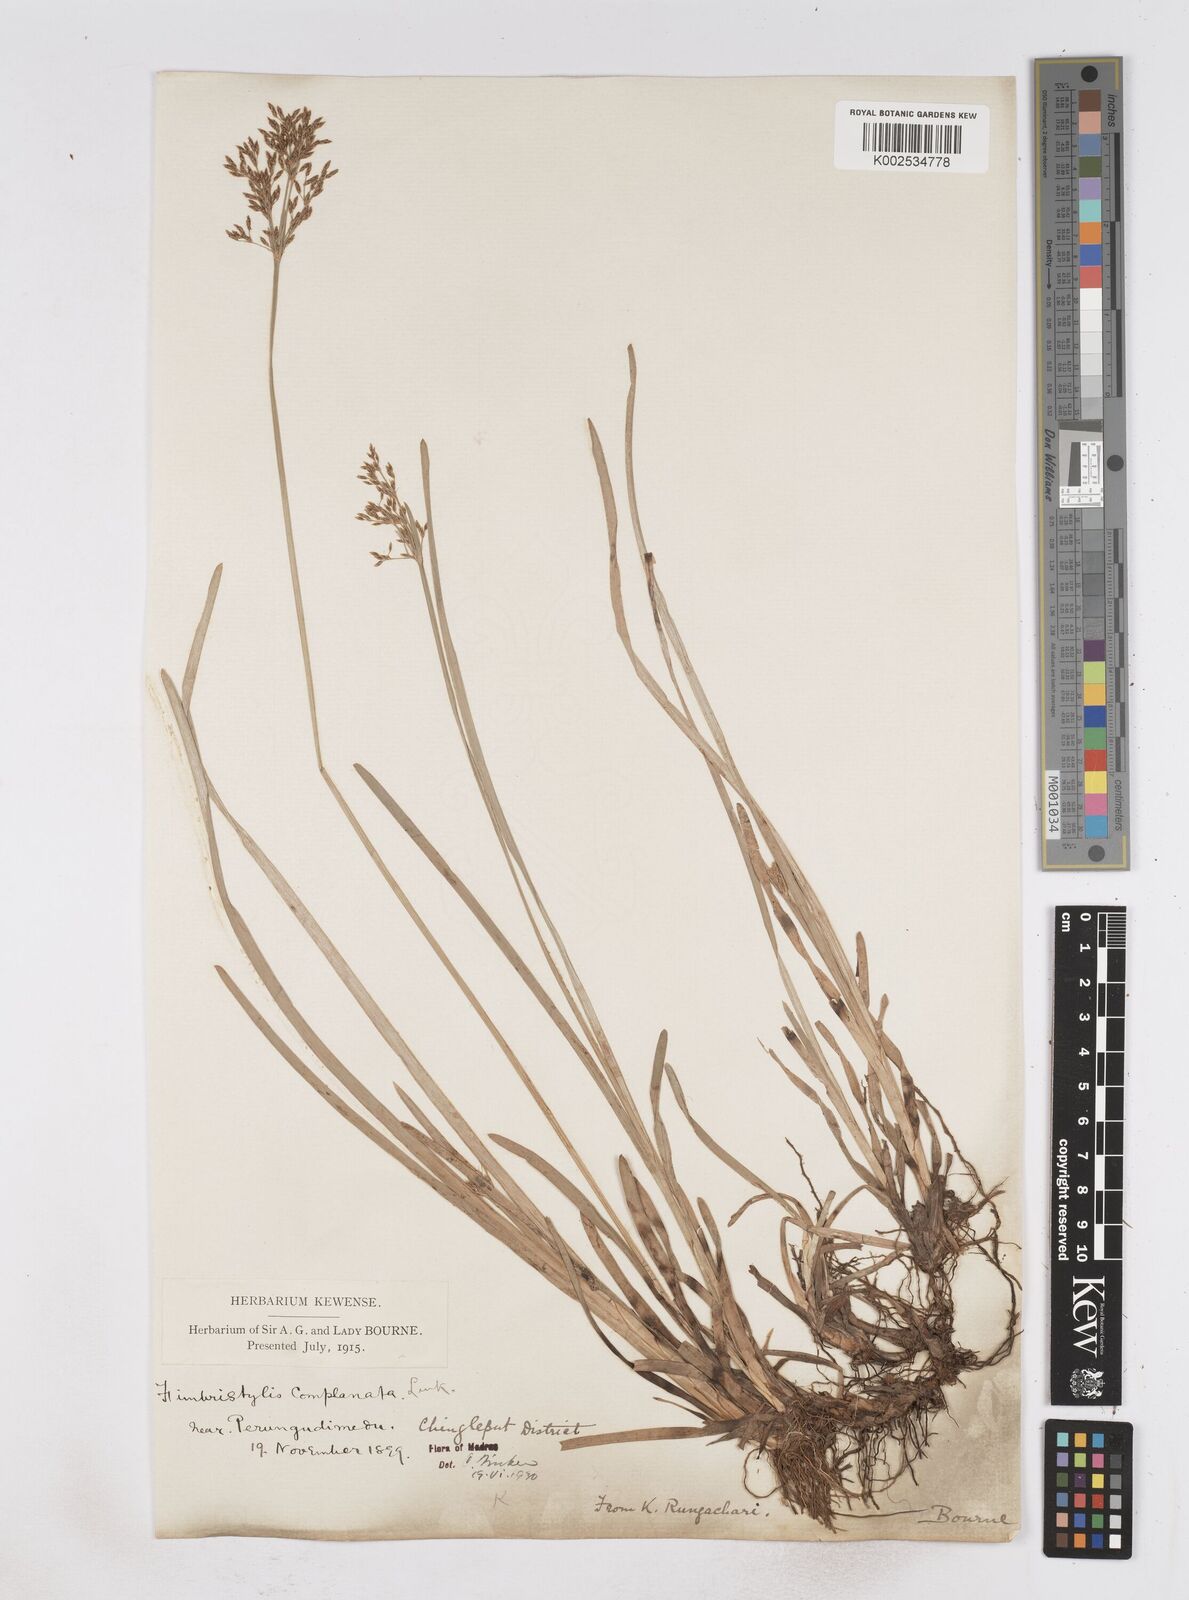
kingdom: Plantae
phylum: Tracheophyta
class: Liliopsida
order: Poales
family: Cyperaceae
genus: Fimbristylis
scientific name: Fimbristylis complanata
